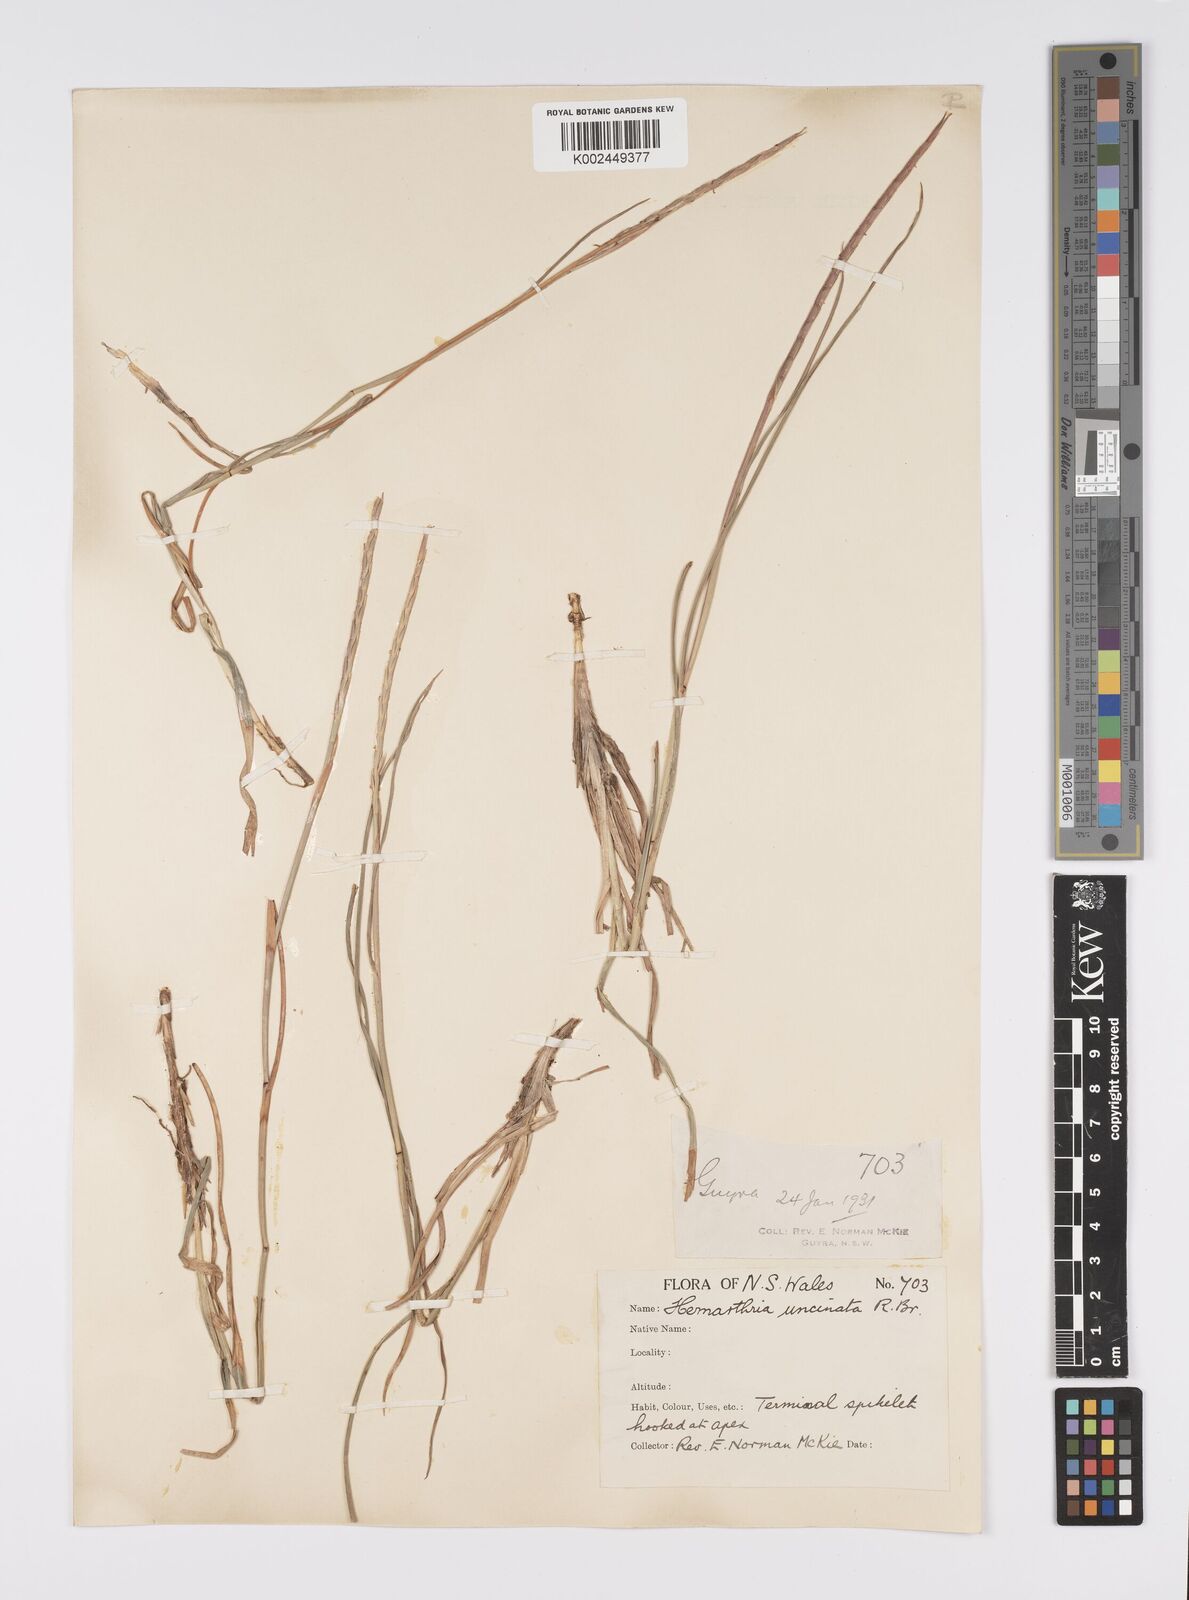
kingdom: Plantae
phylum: Tracheophyta
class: Liliopsida
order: Poales
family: Poaceae
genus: Hemarthria
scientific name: Hemarthria uncinata
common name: Matgrass
